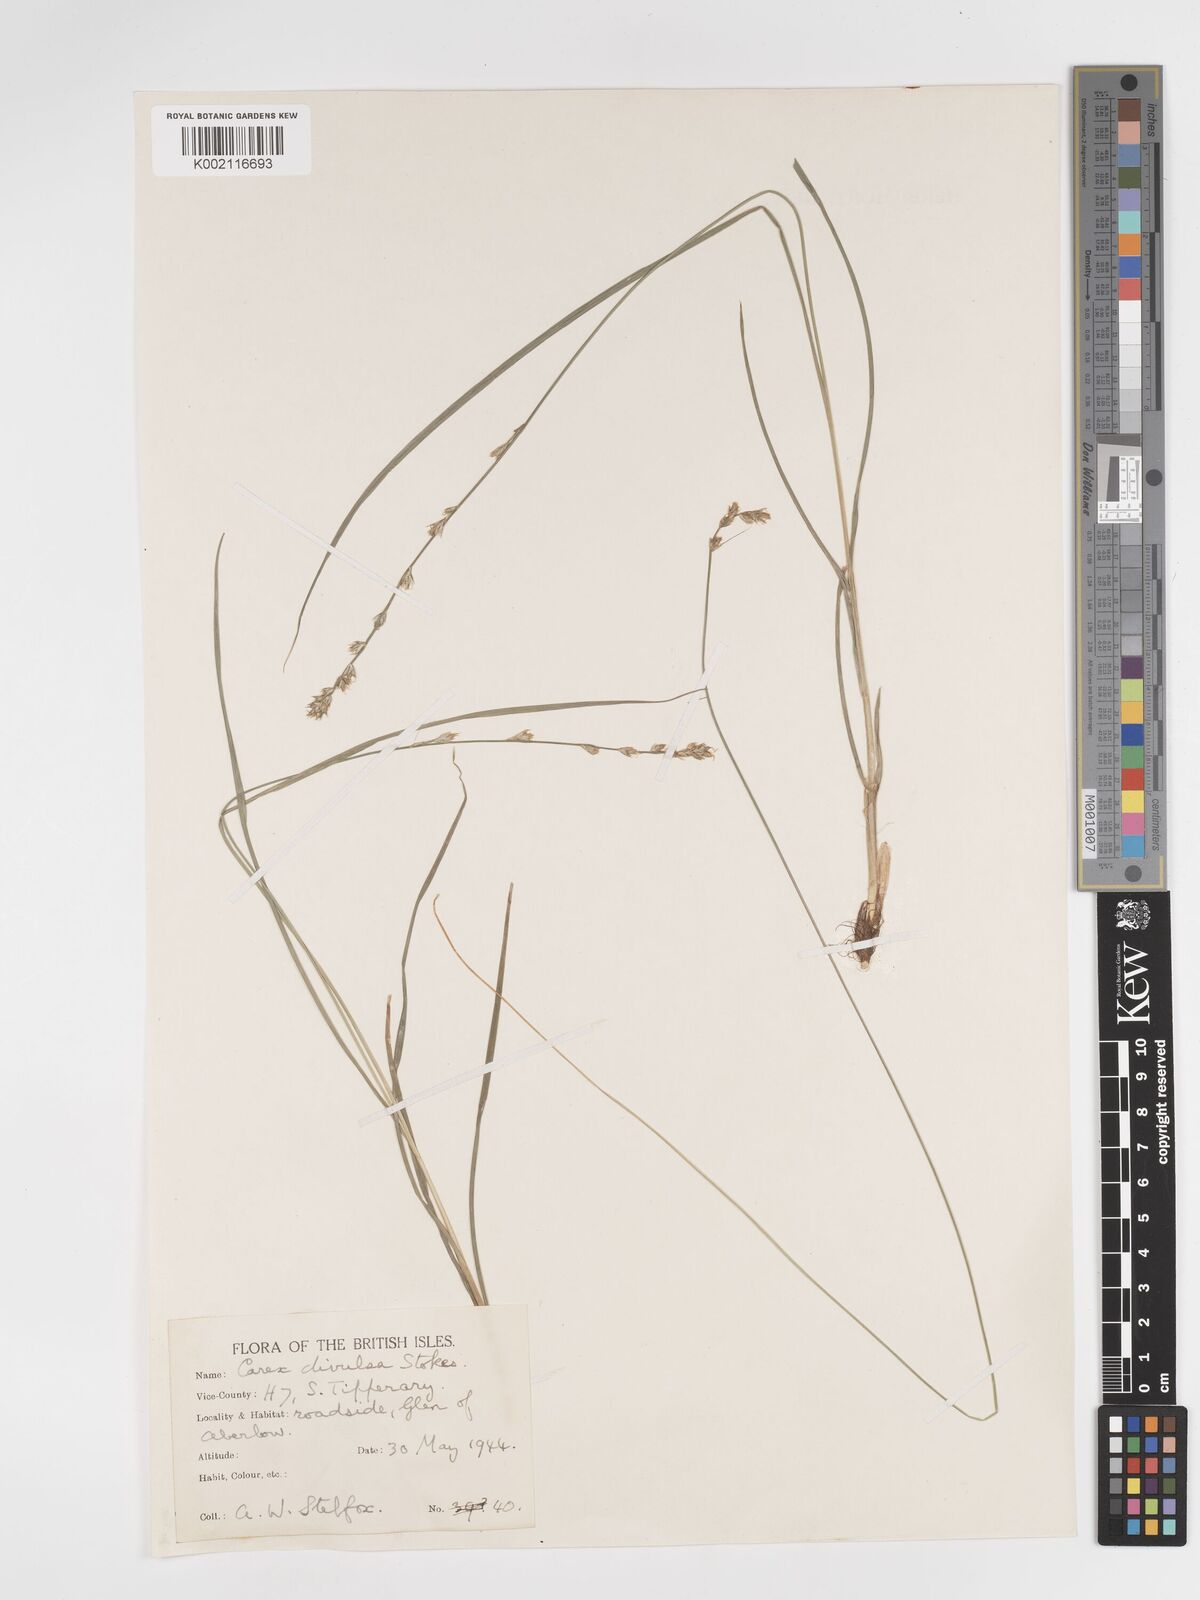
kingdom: Plantae
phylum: Tracheophyta
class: Liliopsida
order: Poales
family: Cyperaceae
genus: Carex
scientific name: Carex divulsa
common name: Grassland sedge
